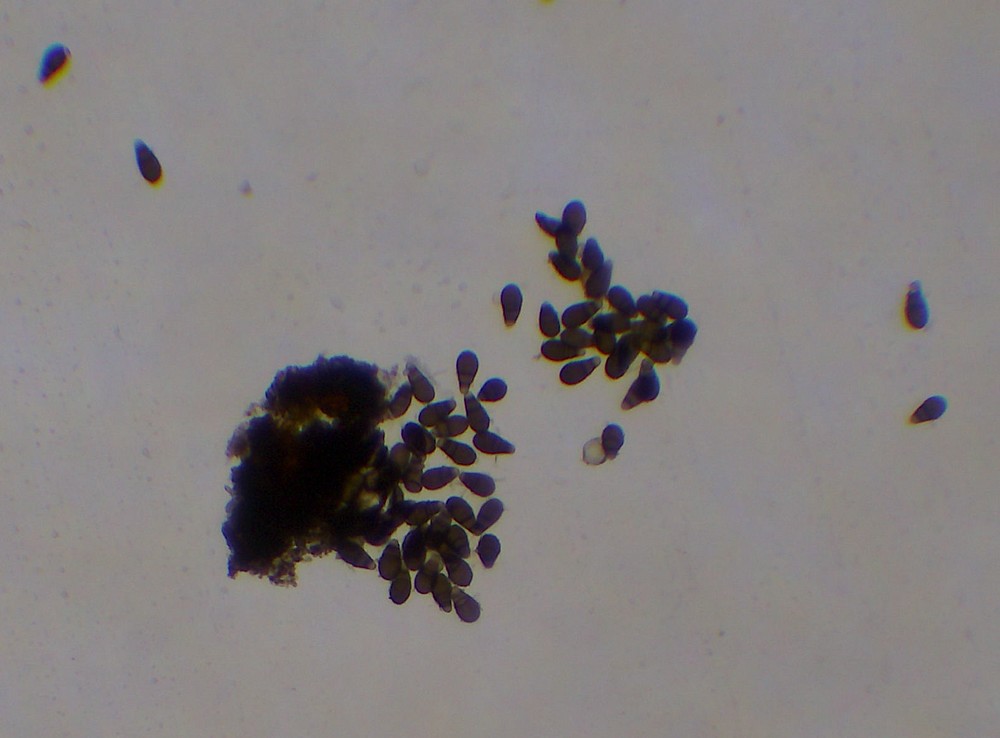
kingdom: Fungi
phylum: Ascomycota
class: Dothideomycetes
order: Pleosporales
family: Neohendersoniaceae
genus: Neohendersonia
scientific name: Neohendersonia kickxii
